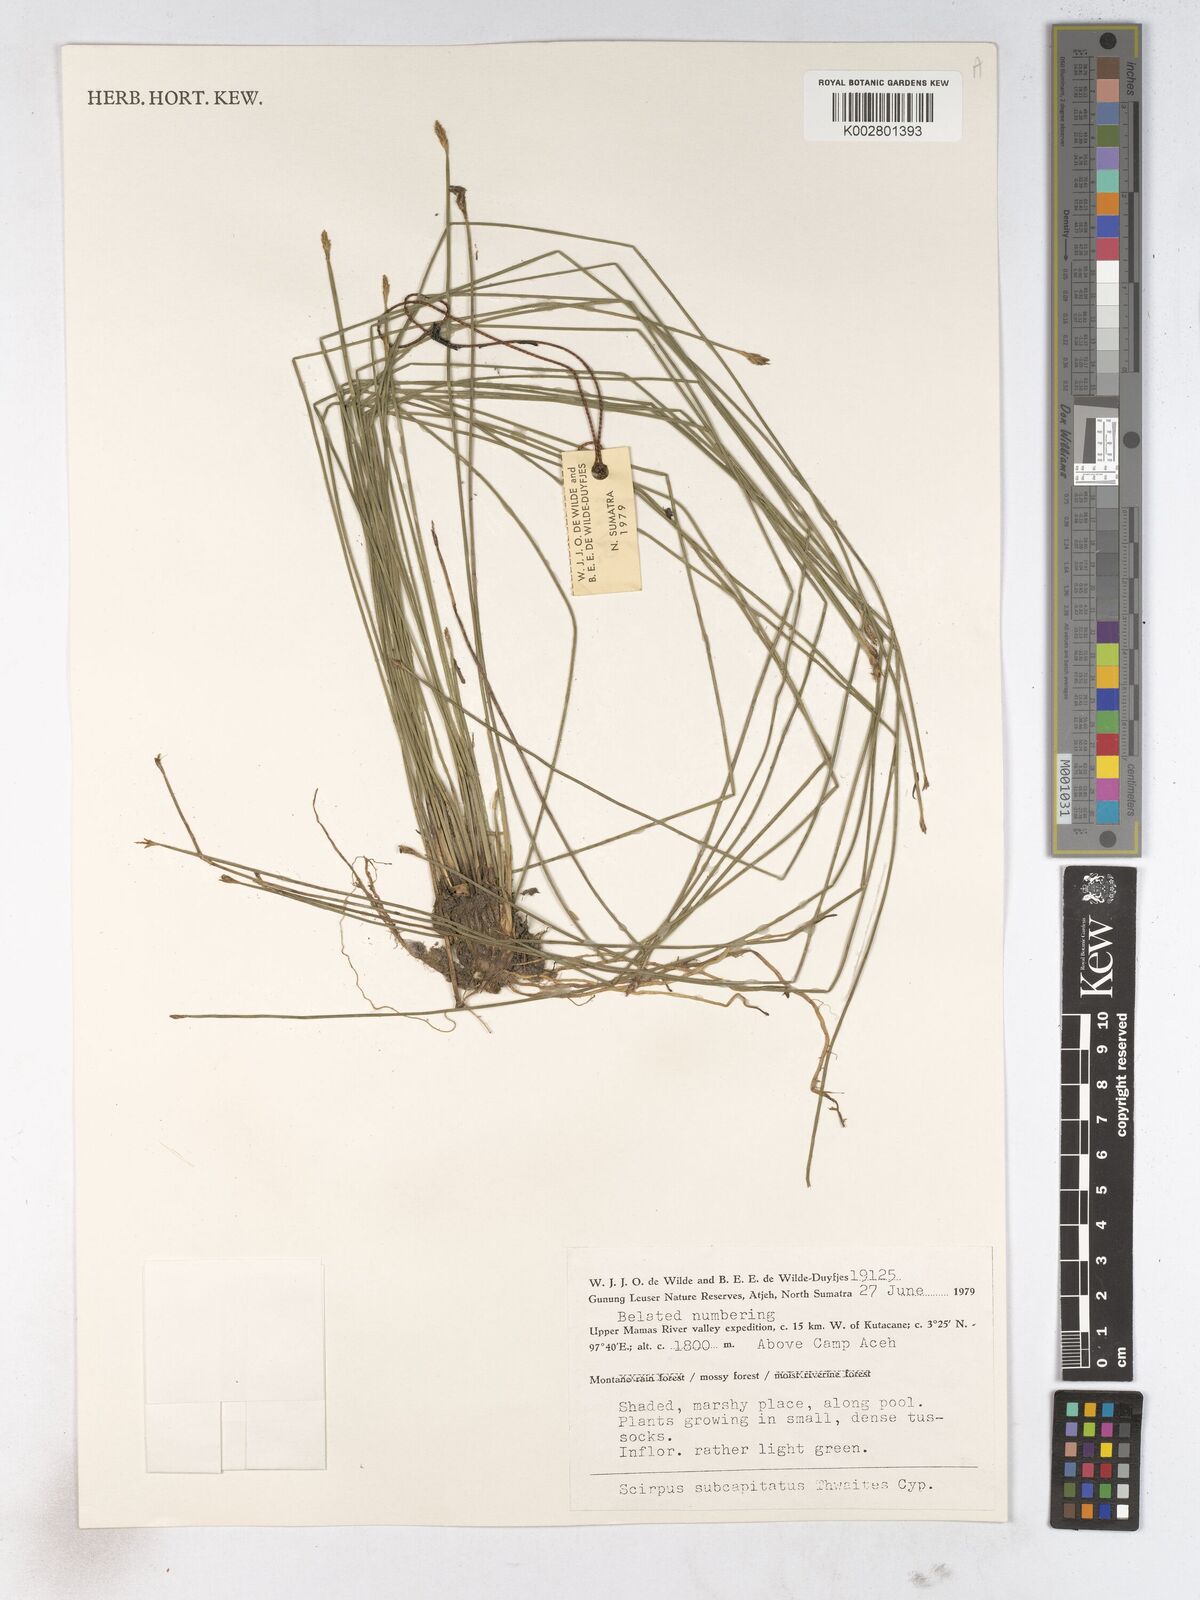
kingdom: Plantae
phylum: Tracheophyta
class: Liliopsida
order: Poales
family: Cyperaceae
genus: Trichophorum
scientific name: Trichophorum subcapitatum
